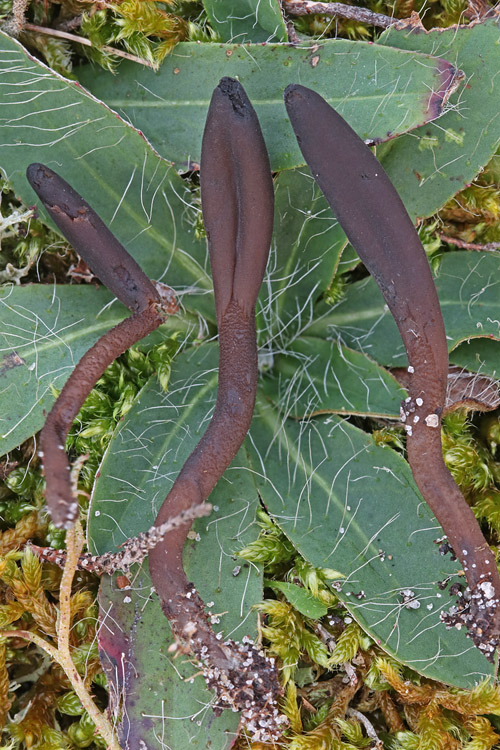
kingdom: Fungi
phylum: Ascomycota
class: Geoglossomycetes
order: Geoglossales
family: Geoglossaceae
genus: Hemileucoglossum
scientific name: Hemileucoglossum elongatum
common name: småsporet jordtunge
